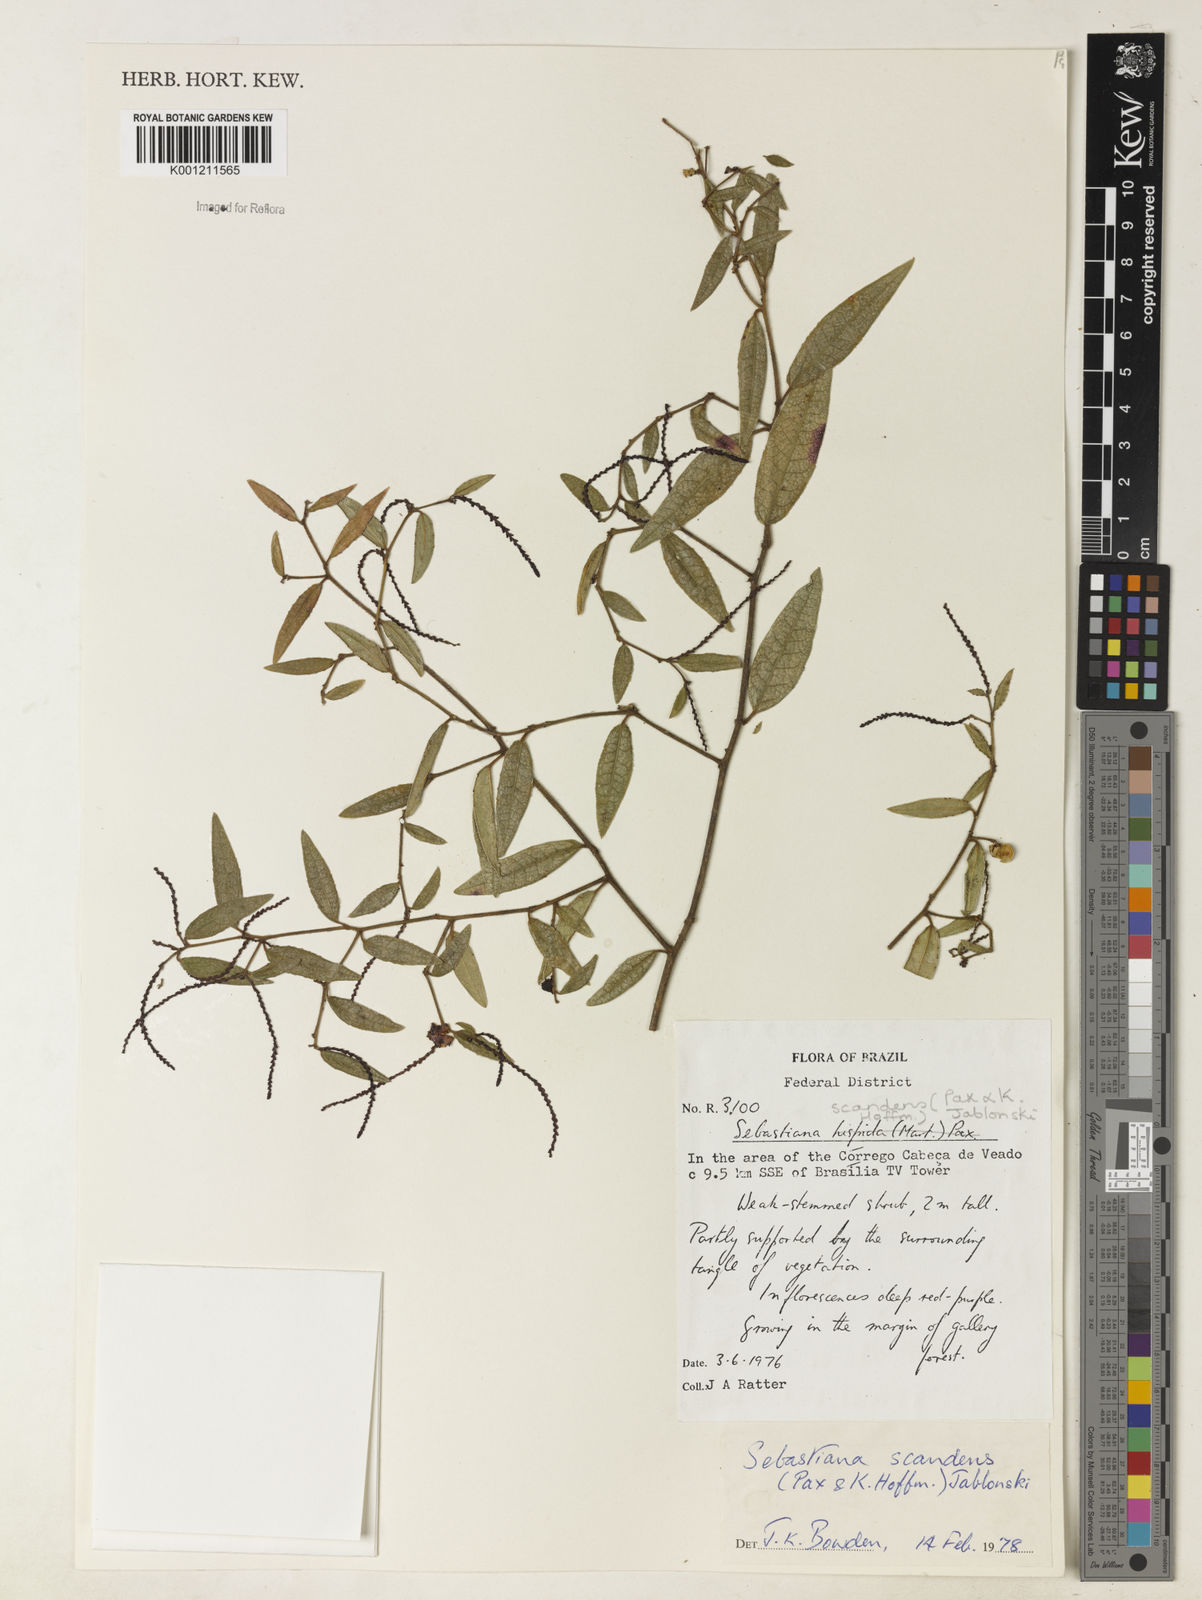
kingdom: Plantae
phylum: Tracheophyta
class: Magnoliopsida
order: Malpighiales
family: Euphorbiaceae
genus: Microstachys
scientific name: Microstachys hispida
